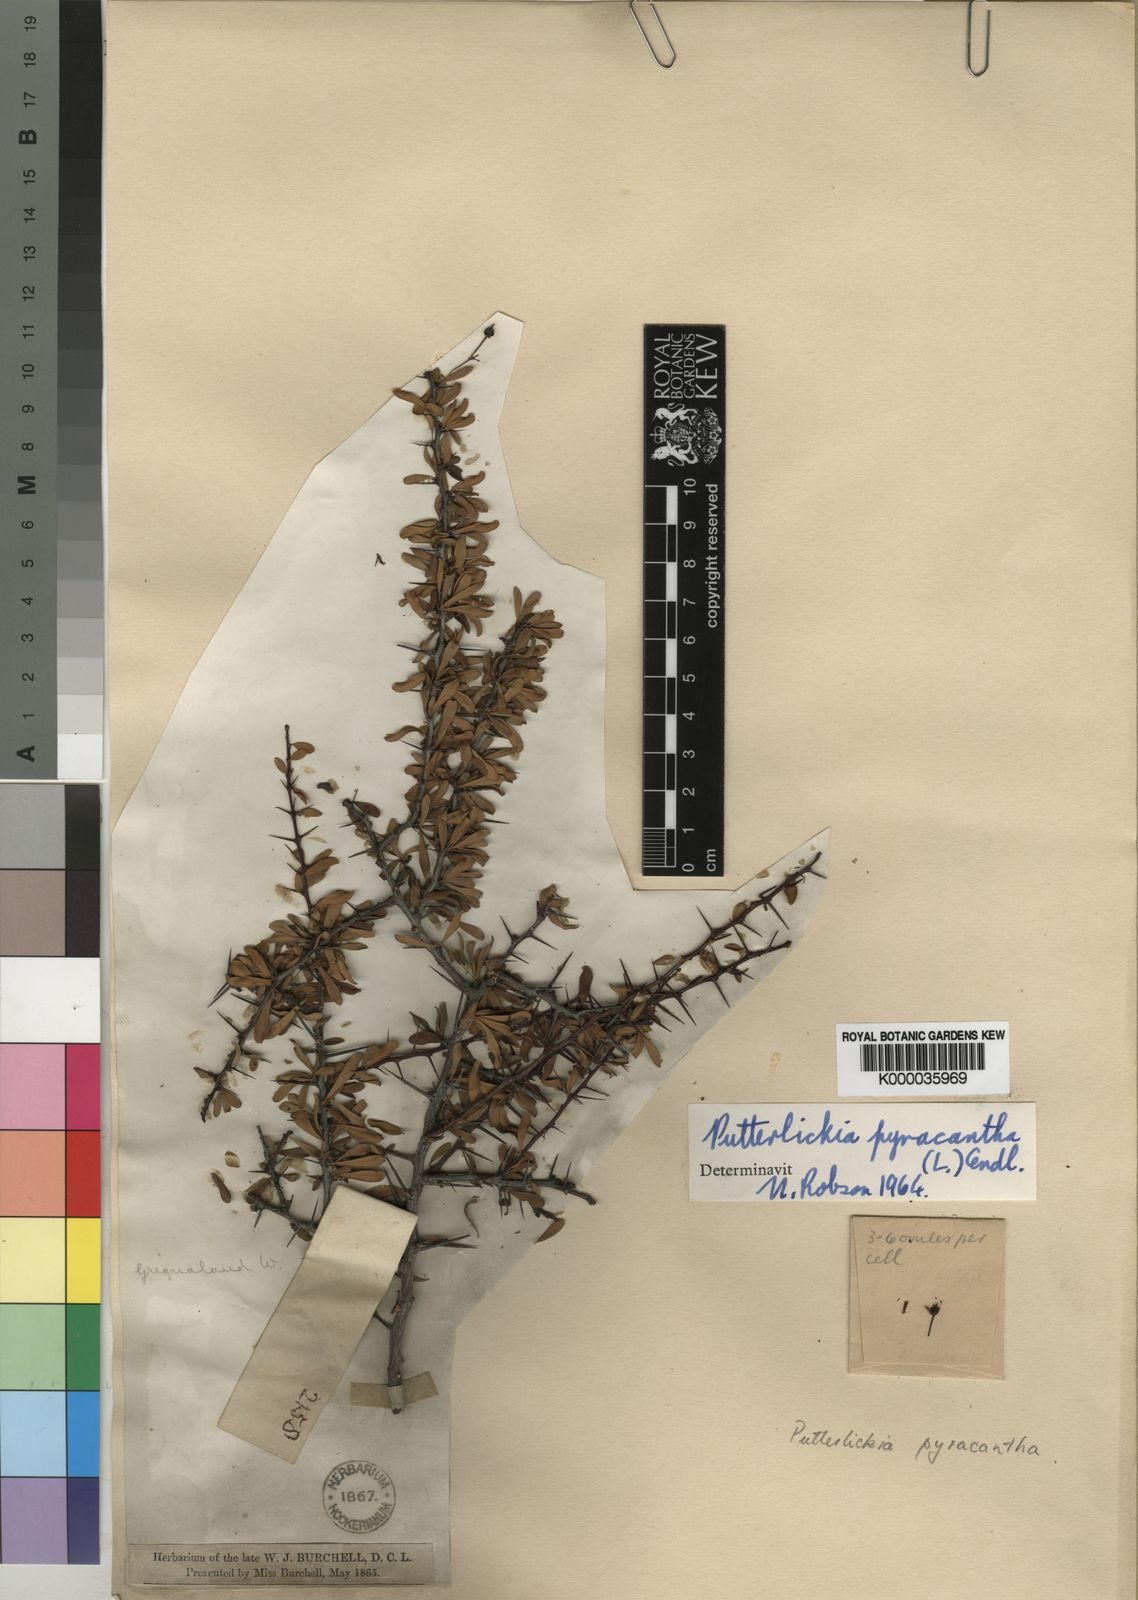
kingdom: Plantae
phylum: Tracheophyta
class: Magnoliopsida
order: Celastrales
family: Celastraceae
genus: Putterlickia
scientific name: Putterlickia
